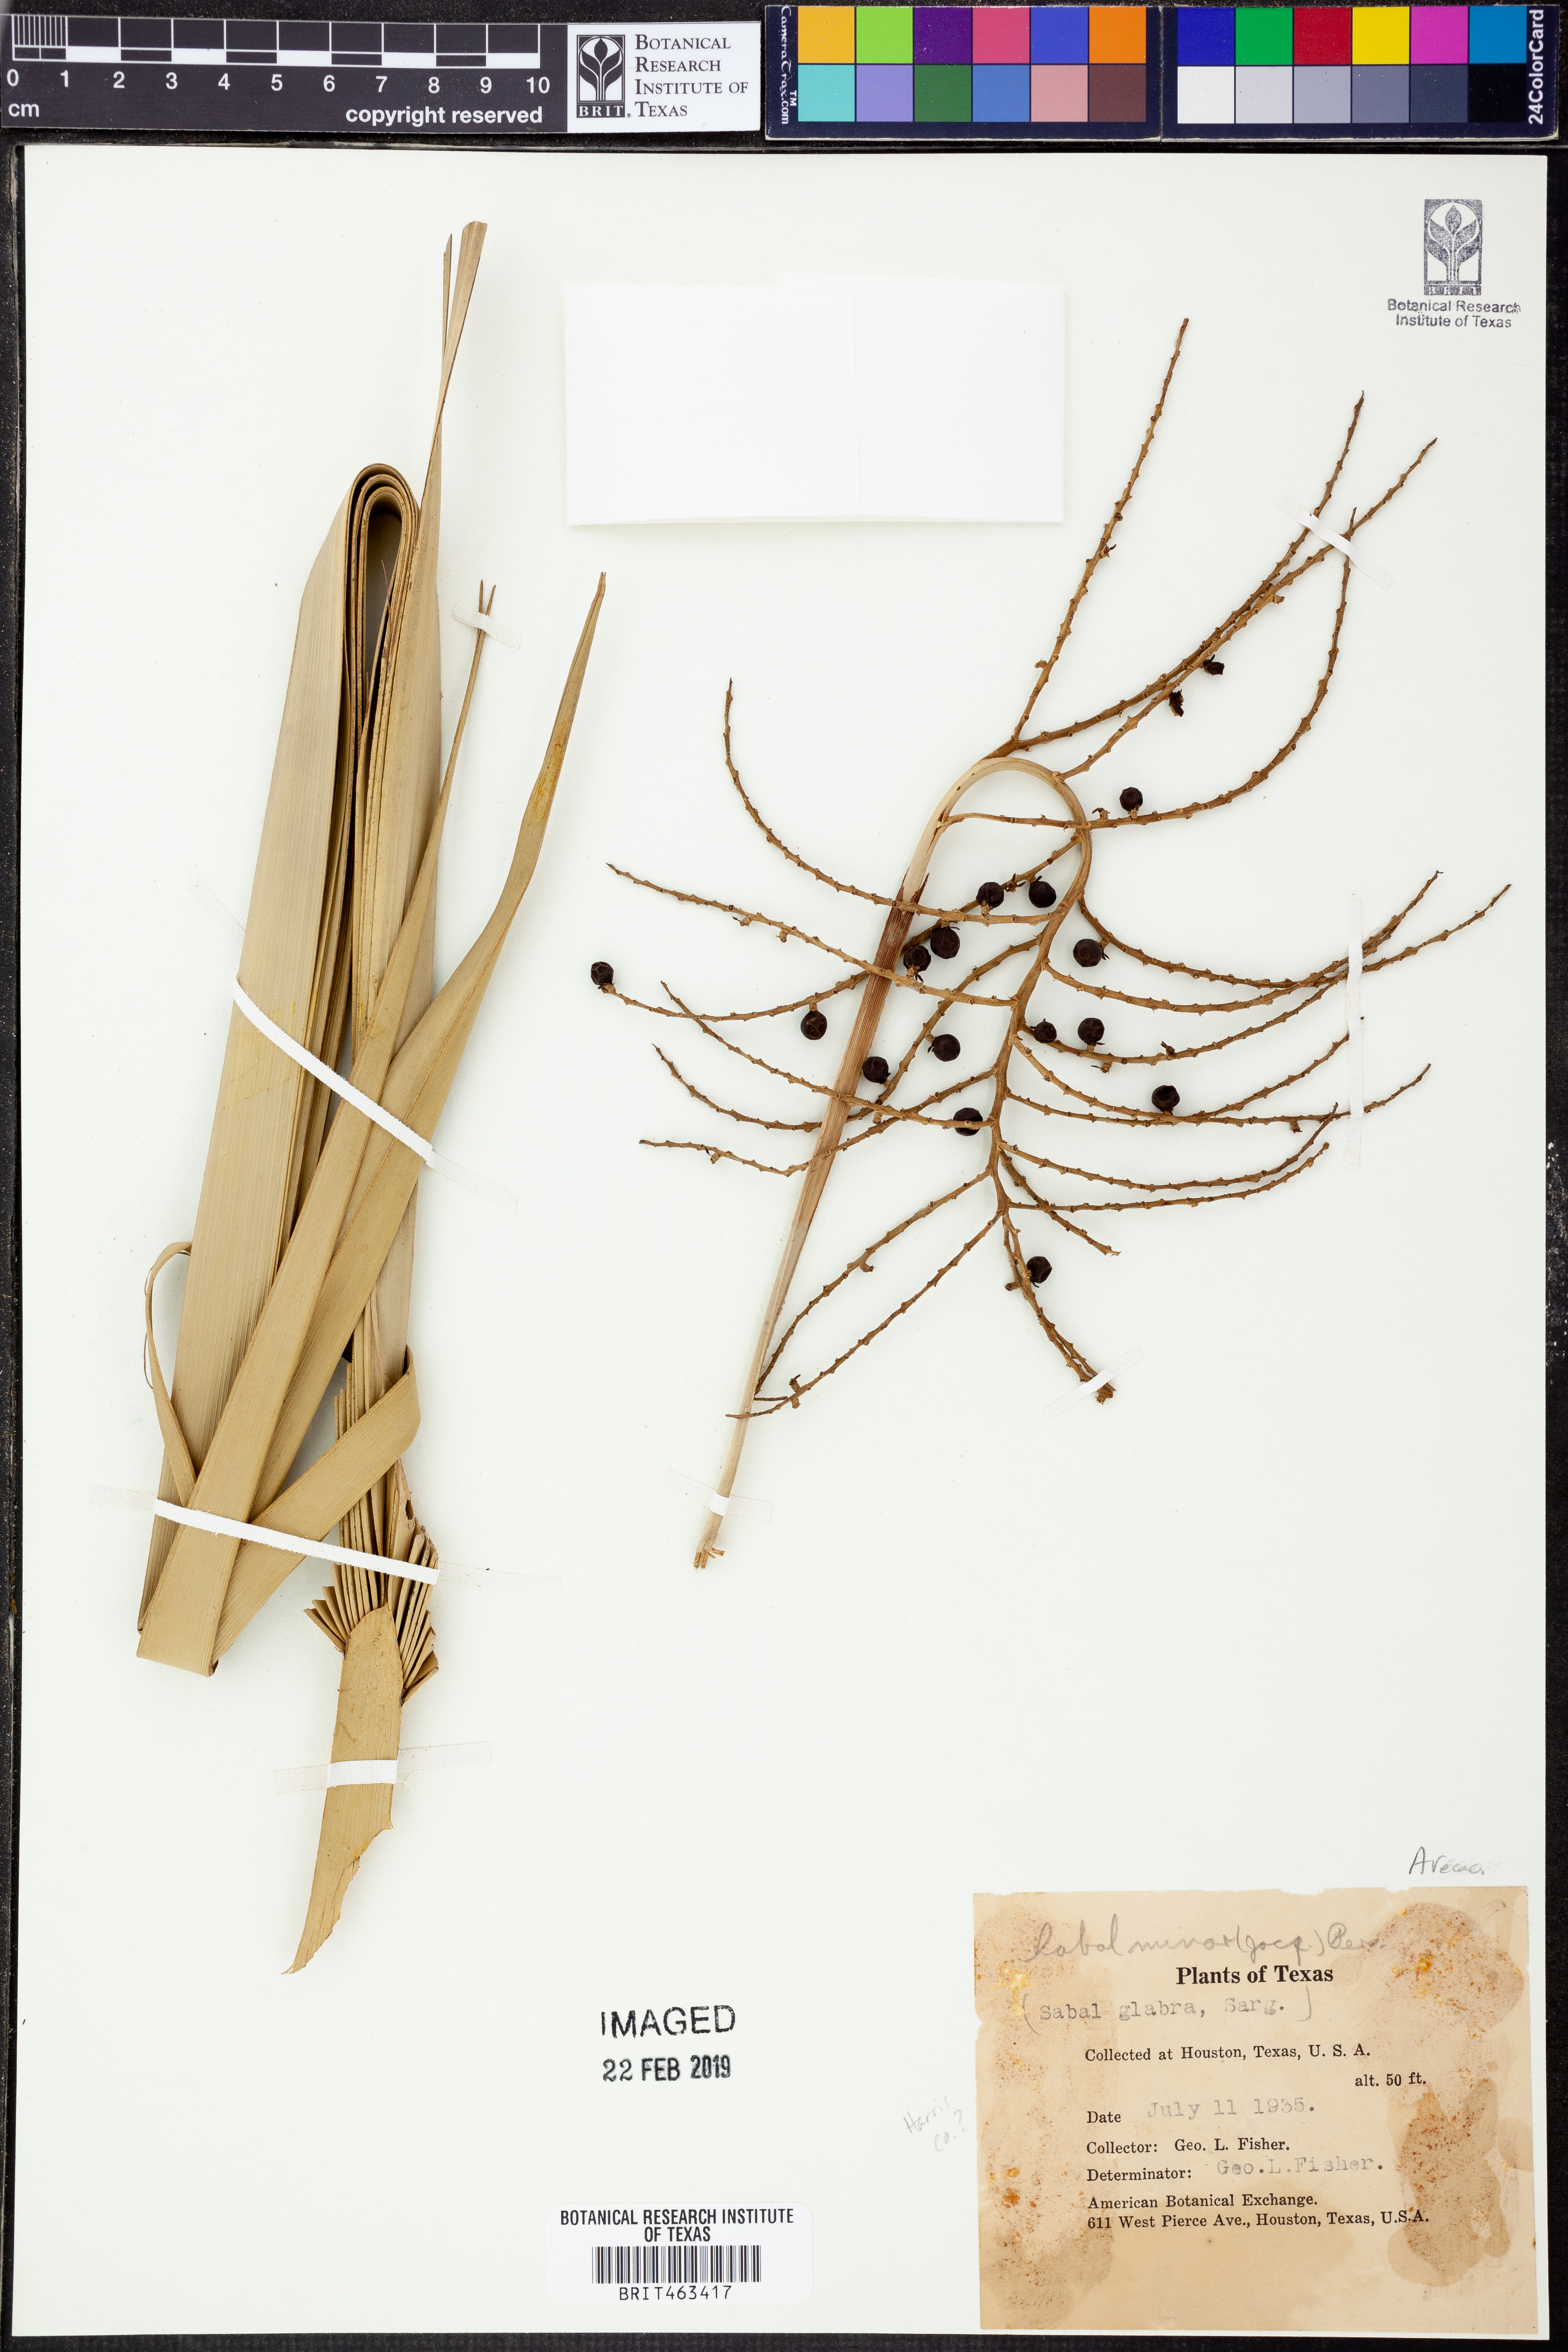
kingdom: Plantae
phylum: Tracheophyta
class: Liliopsida
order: Arecales
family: Arecaceae
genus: Sabal
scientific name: Sabal minor
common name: Dwarf palmetto
